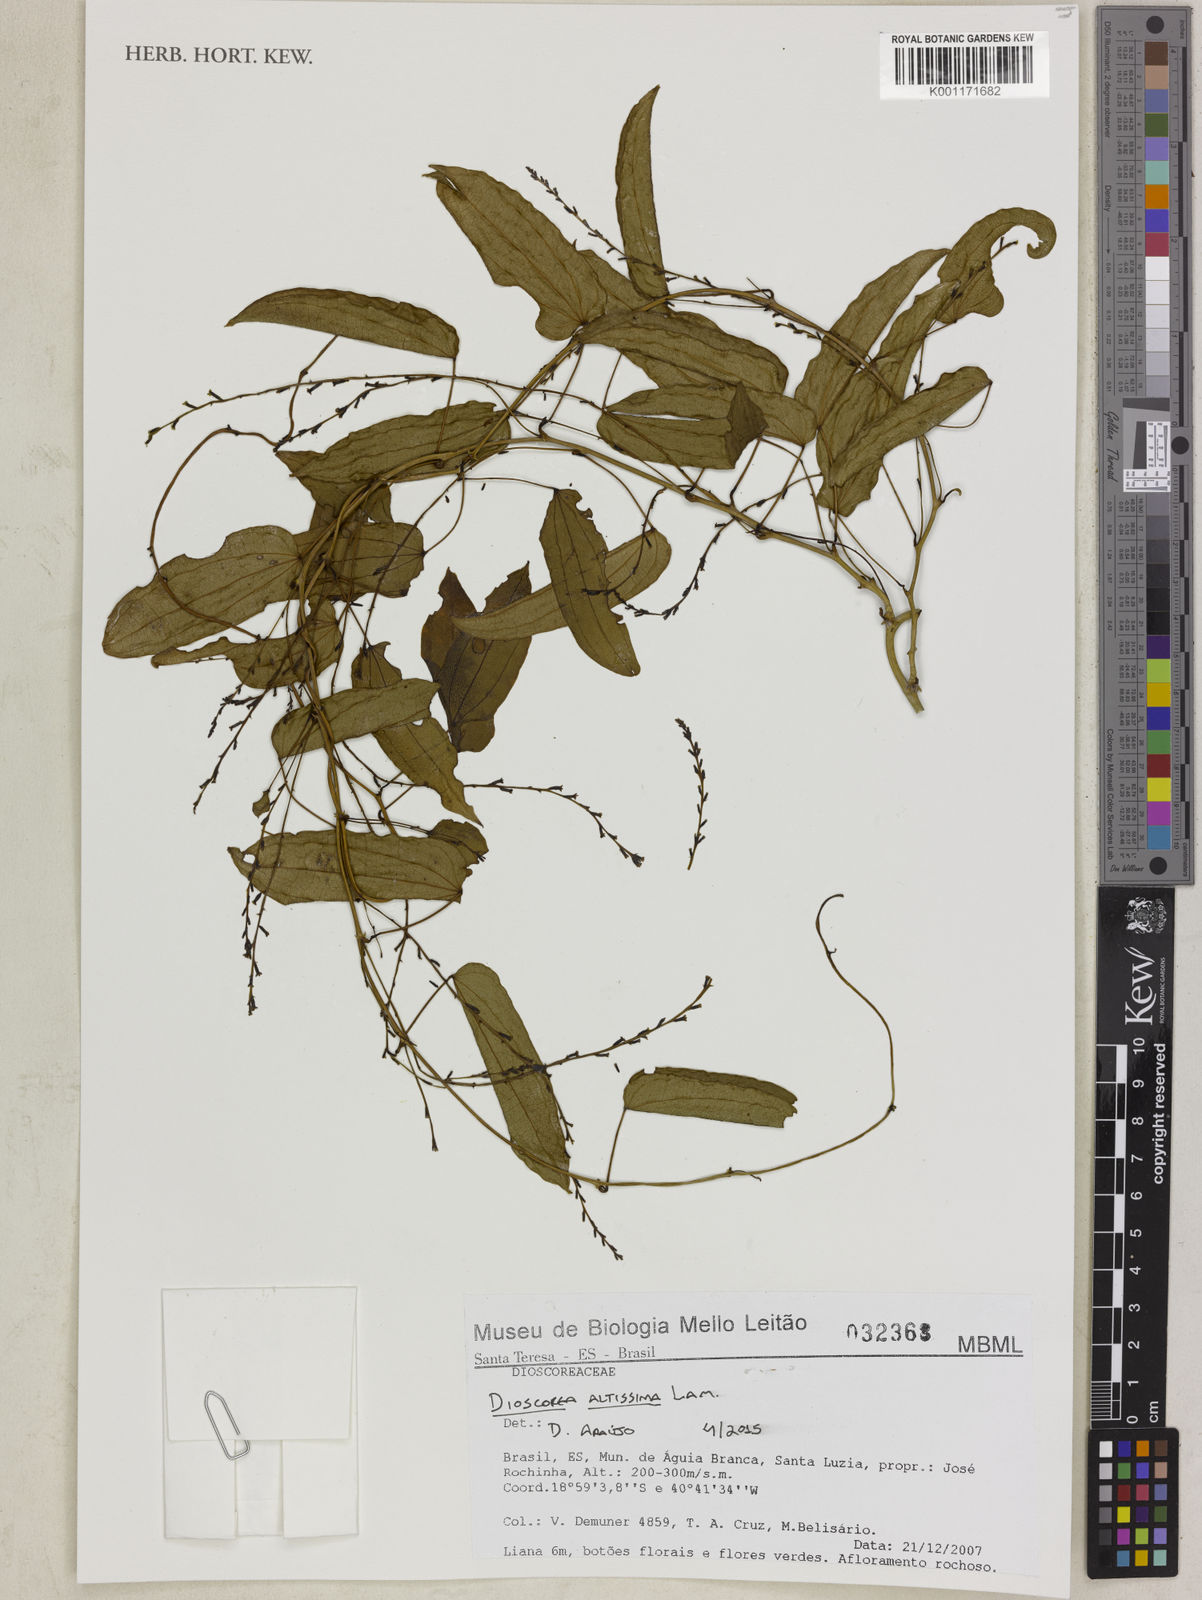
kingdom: Plantae
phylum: Tracheophyta
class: Liliopsida
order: Dioscoreales
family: Dioscoreaceae
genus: Dioscorea
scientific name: Dioscorea chondrocarpa
